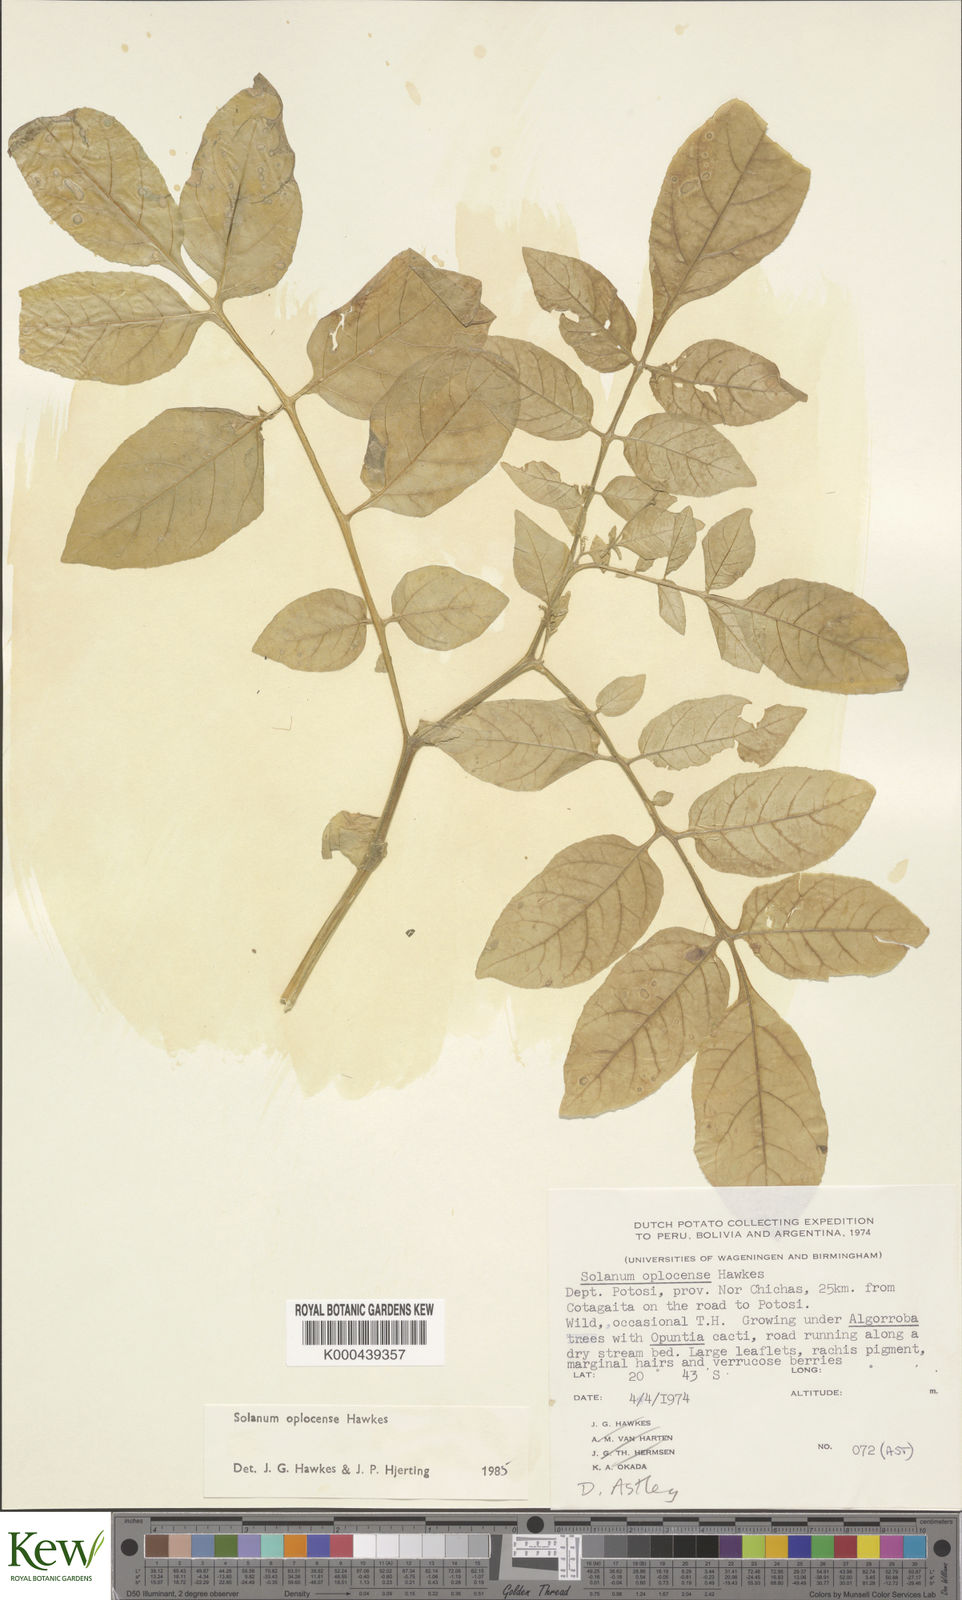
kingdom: Plantae
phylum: Tracheophyta
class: Magnoliopsida
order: Solanales
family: Solanaceae
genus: Solanum
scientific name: Solanum brevicaule
